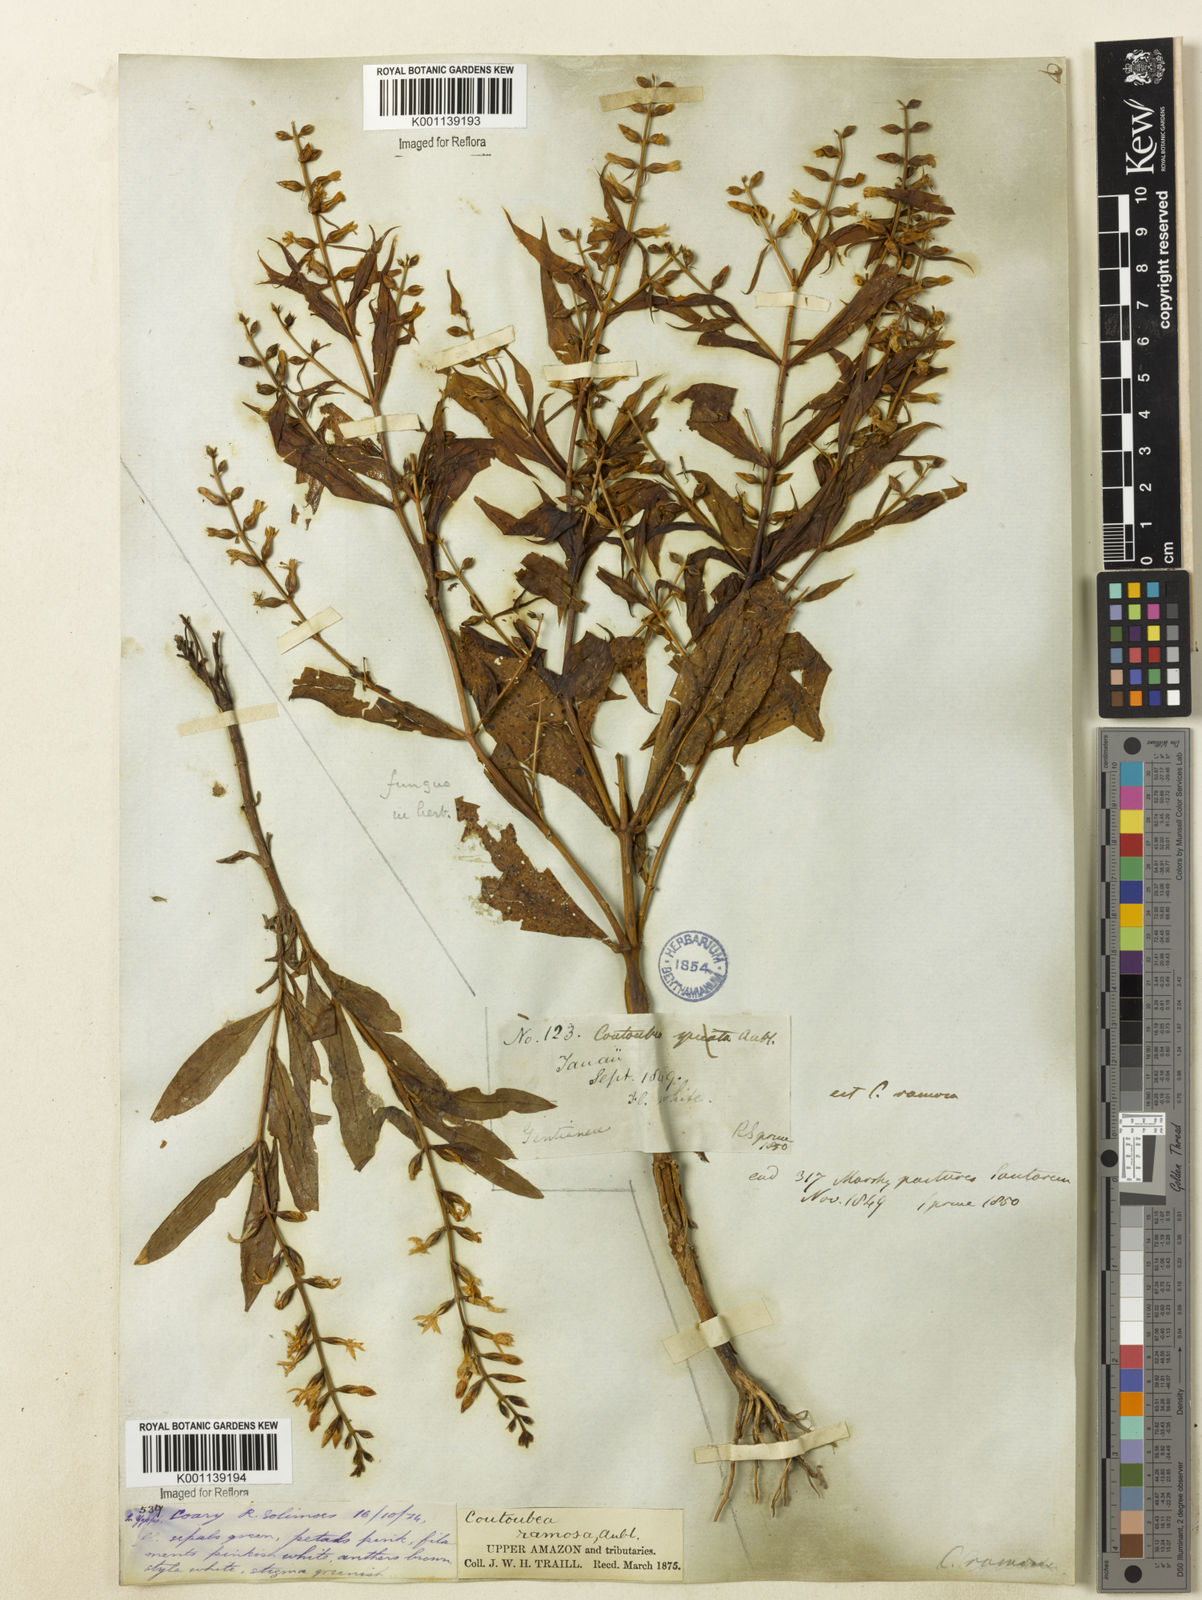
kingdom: Plantae
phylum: Tracheophyta
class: Magnoliopsida
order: Gentianales
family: Gentianaceae
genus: Coutoubea
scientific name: Coutoubea ramosa
